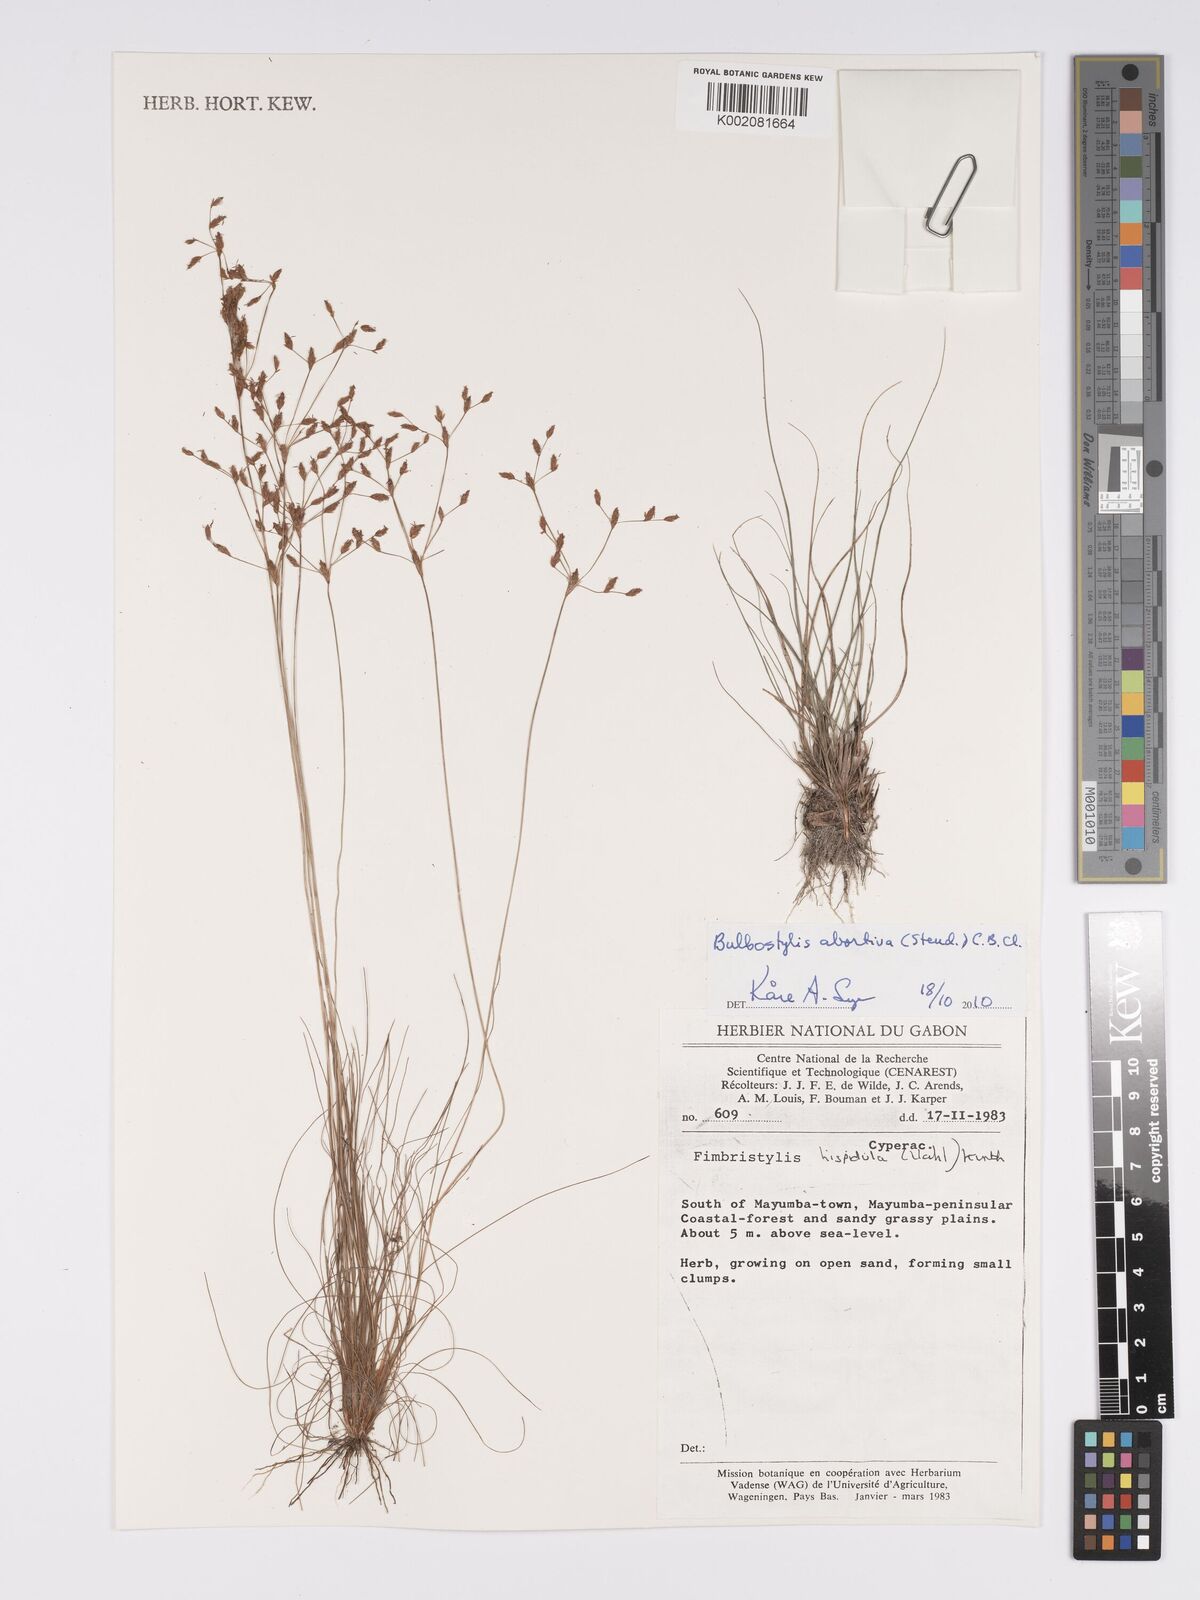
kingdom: Plantae
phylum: Tracheophyta
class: Liliopsida
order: Poales
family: Cyperaceae
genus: Bulbostylis
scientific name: Bulbostylis abortiva
